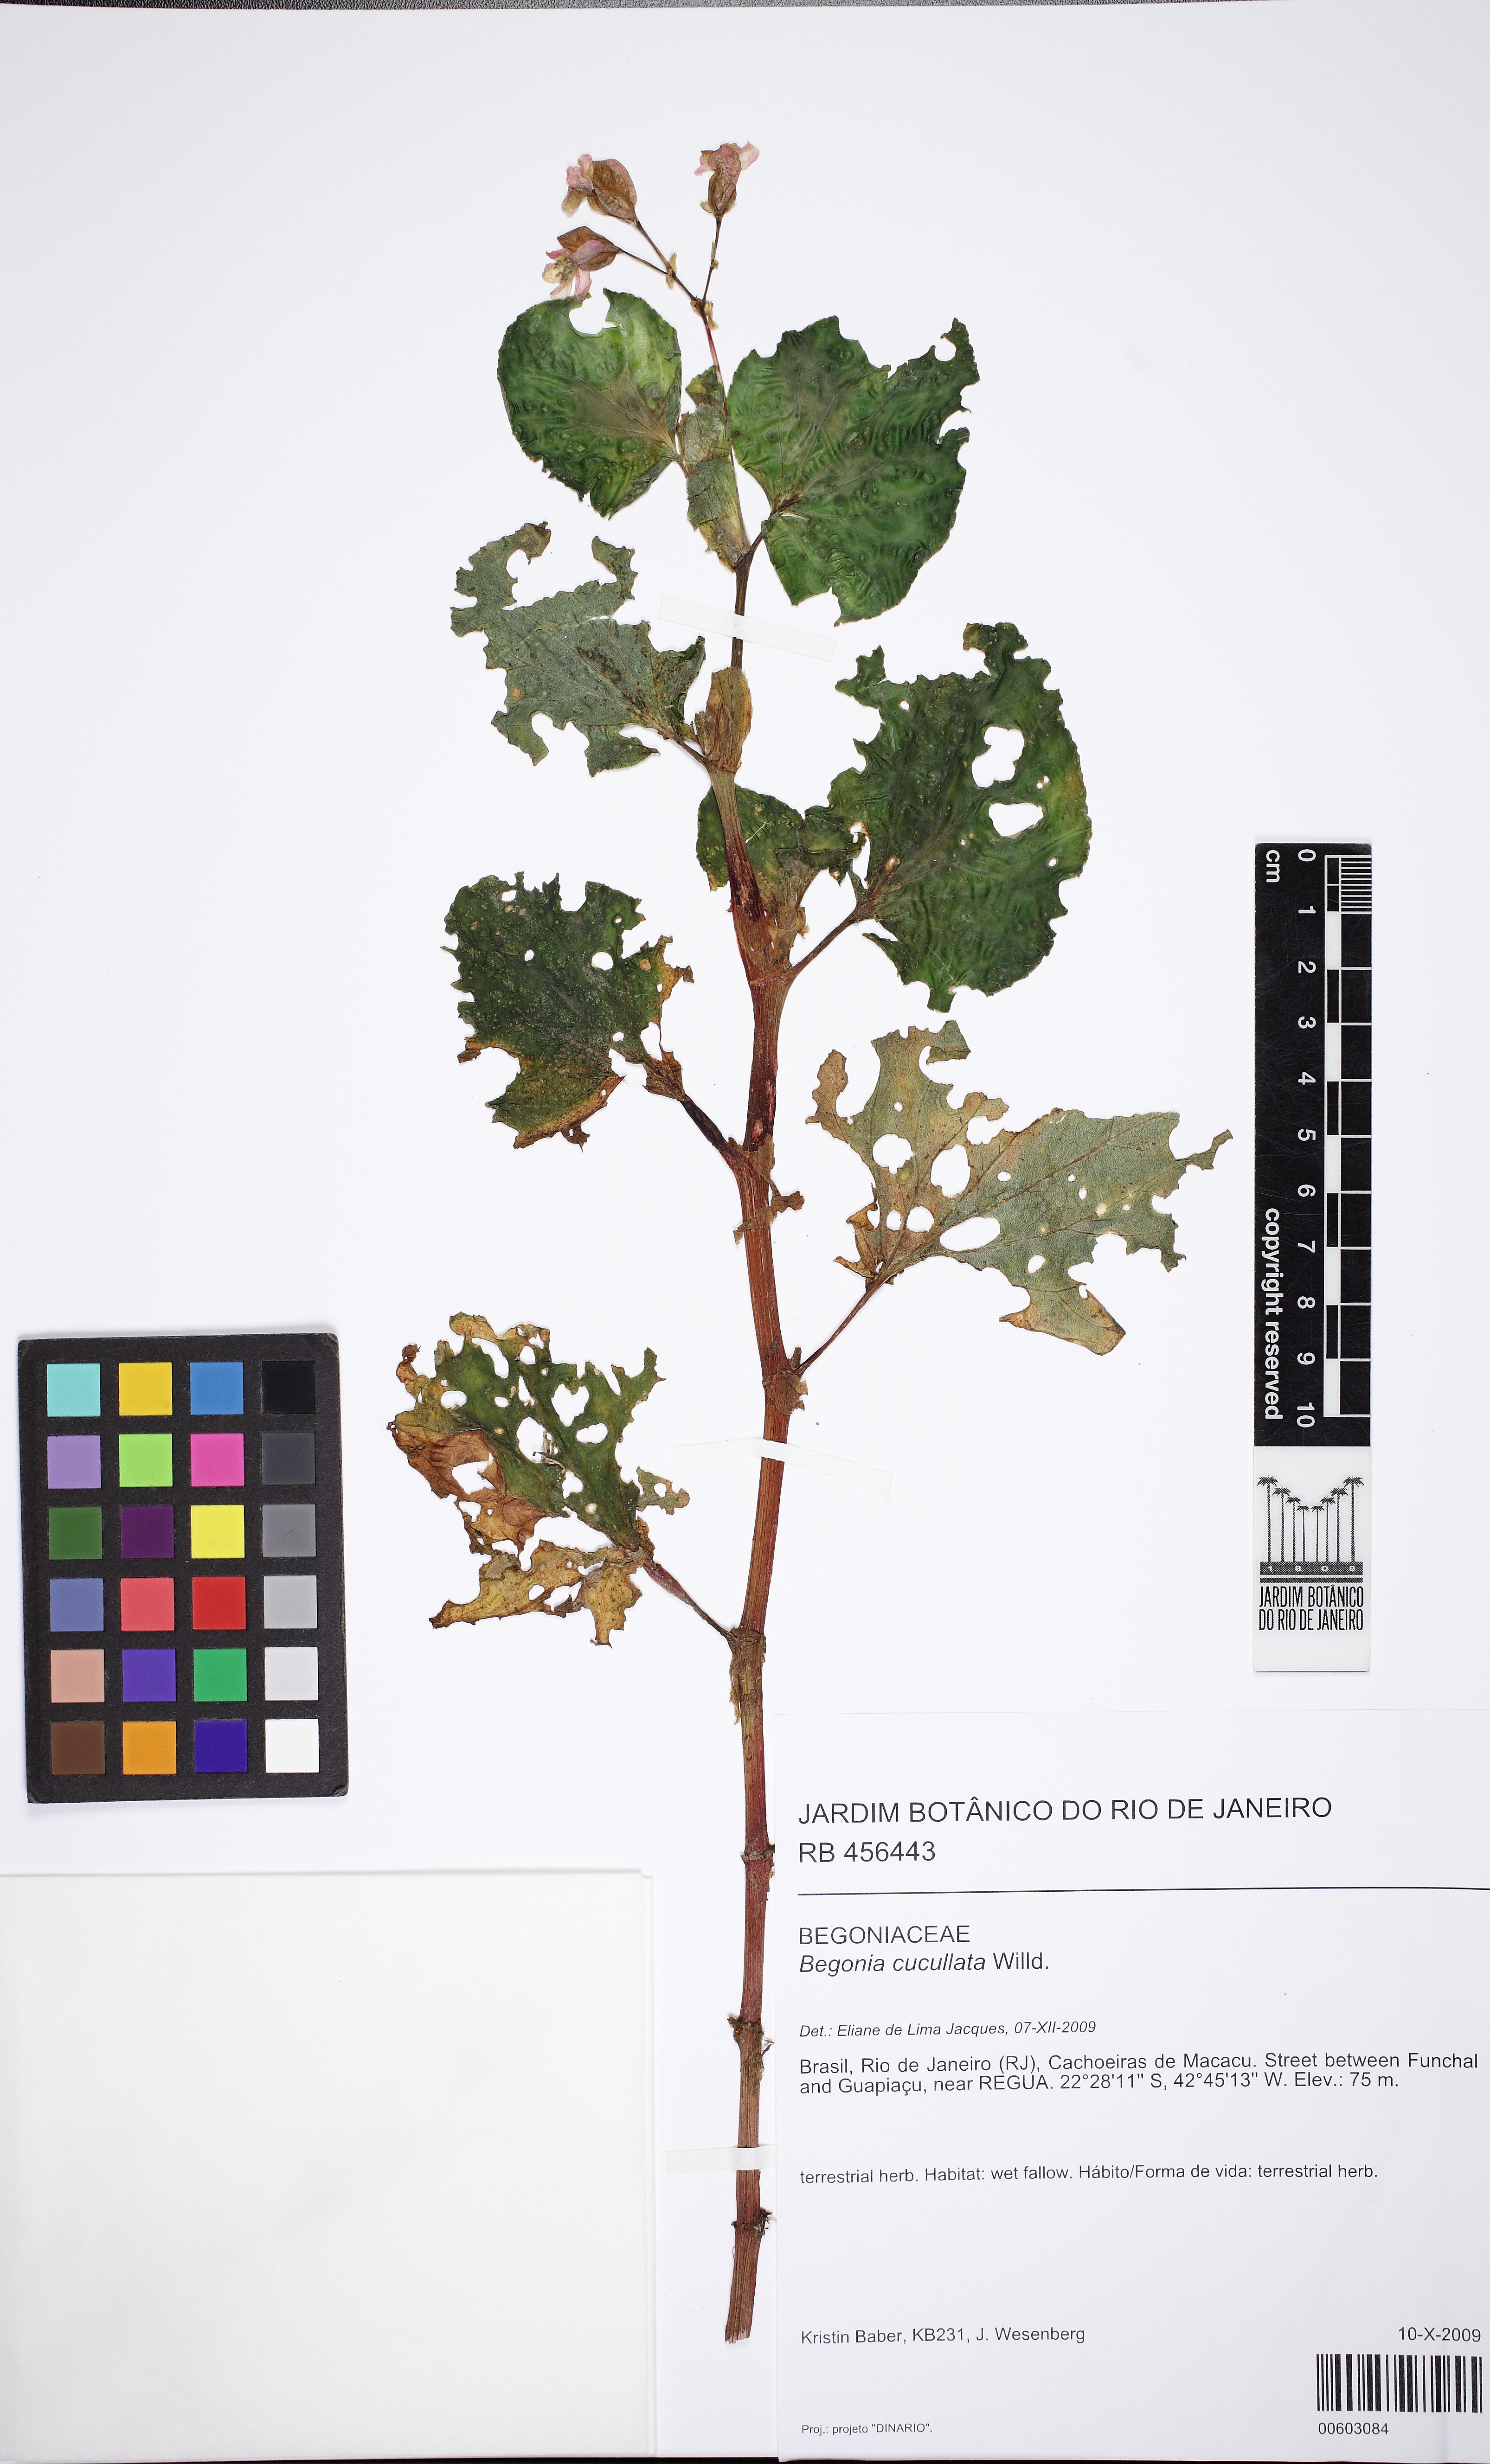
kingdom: Plantae
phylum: Tracheophyta
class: Magnoliopsida
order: Cucurbitales
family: Begoniaceae
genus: Begonia
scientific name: Begonia cucullata
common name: Clubbed begonia
